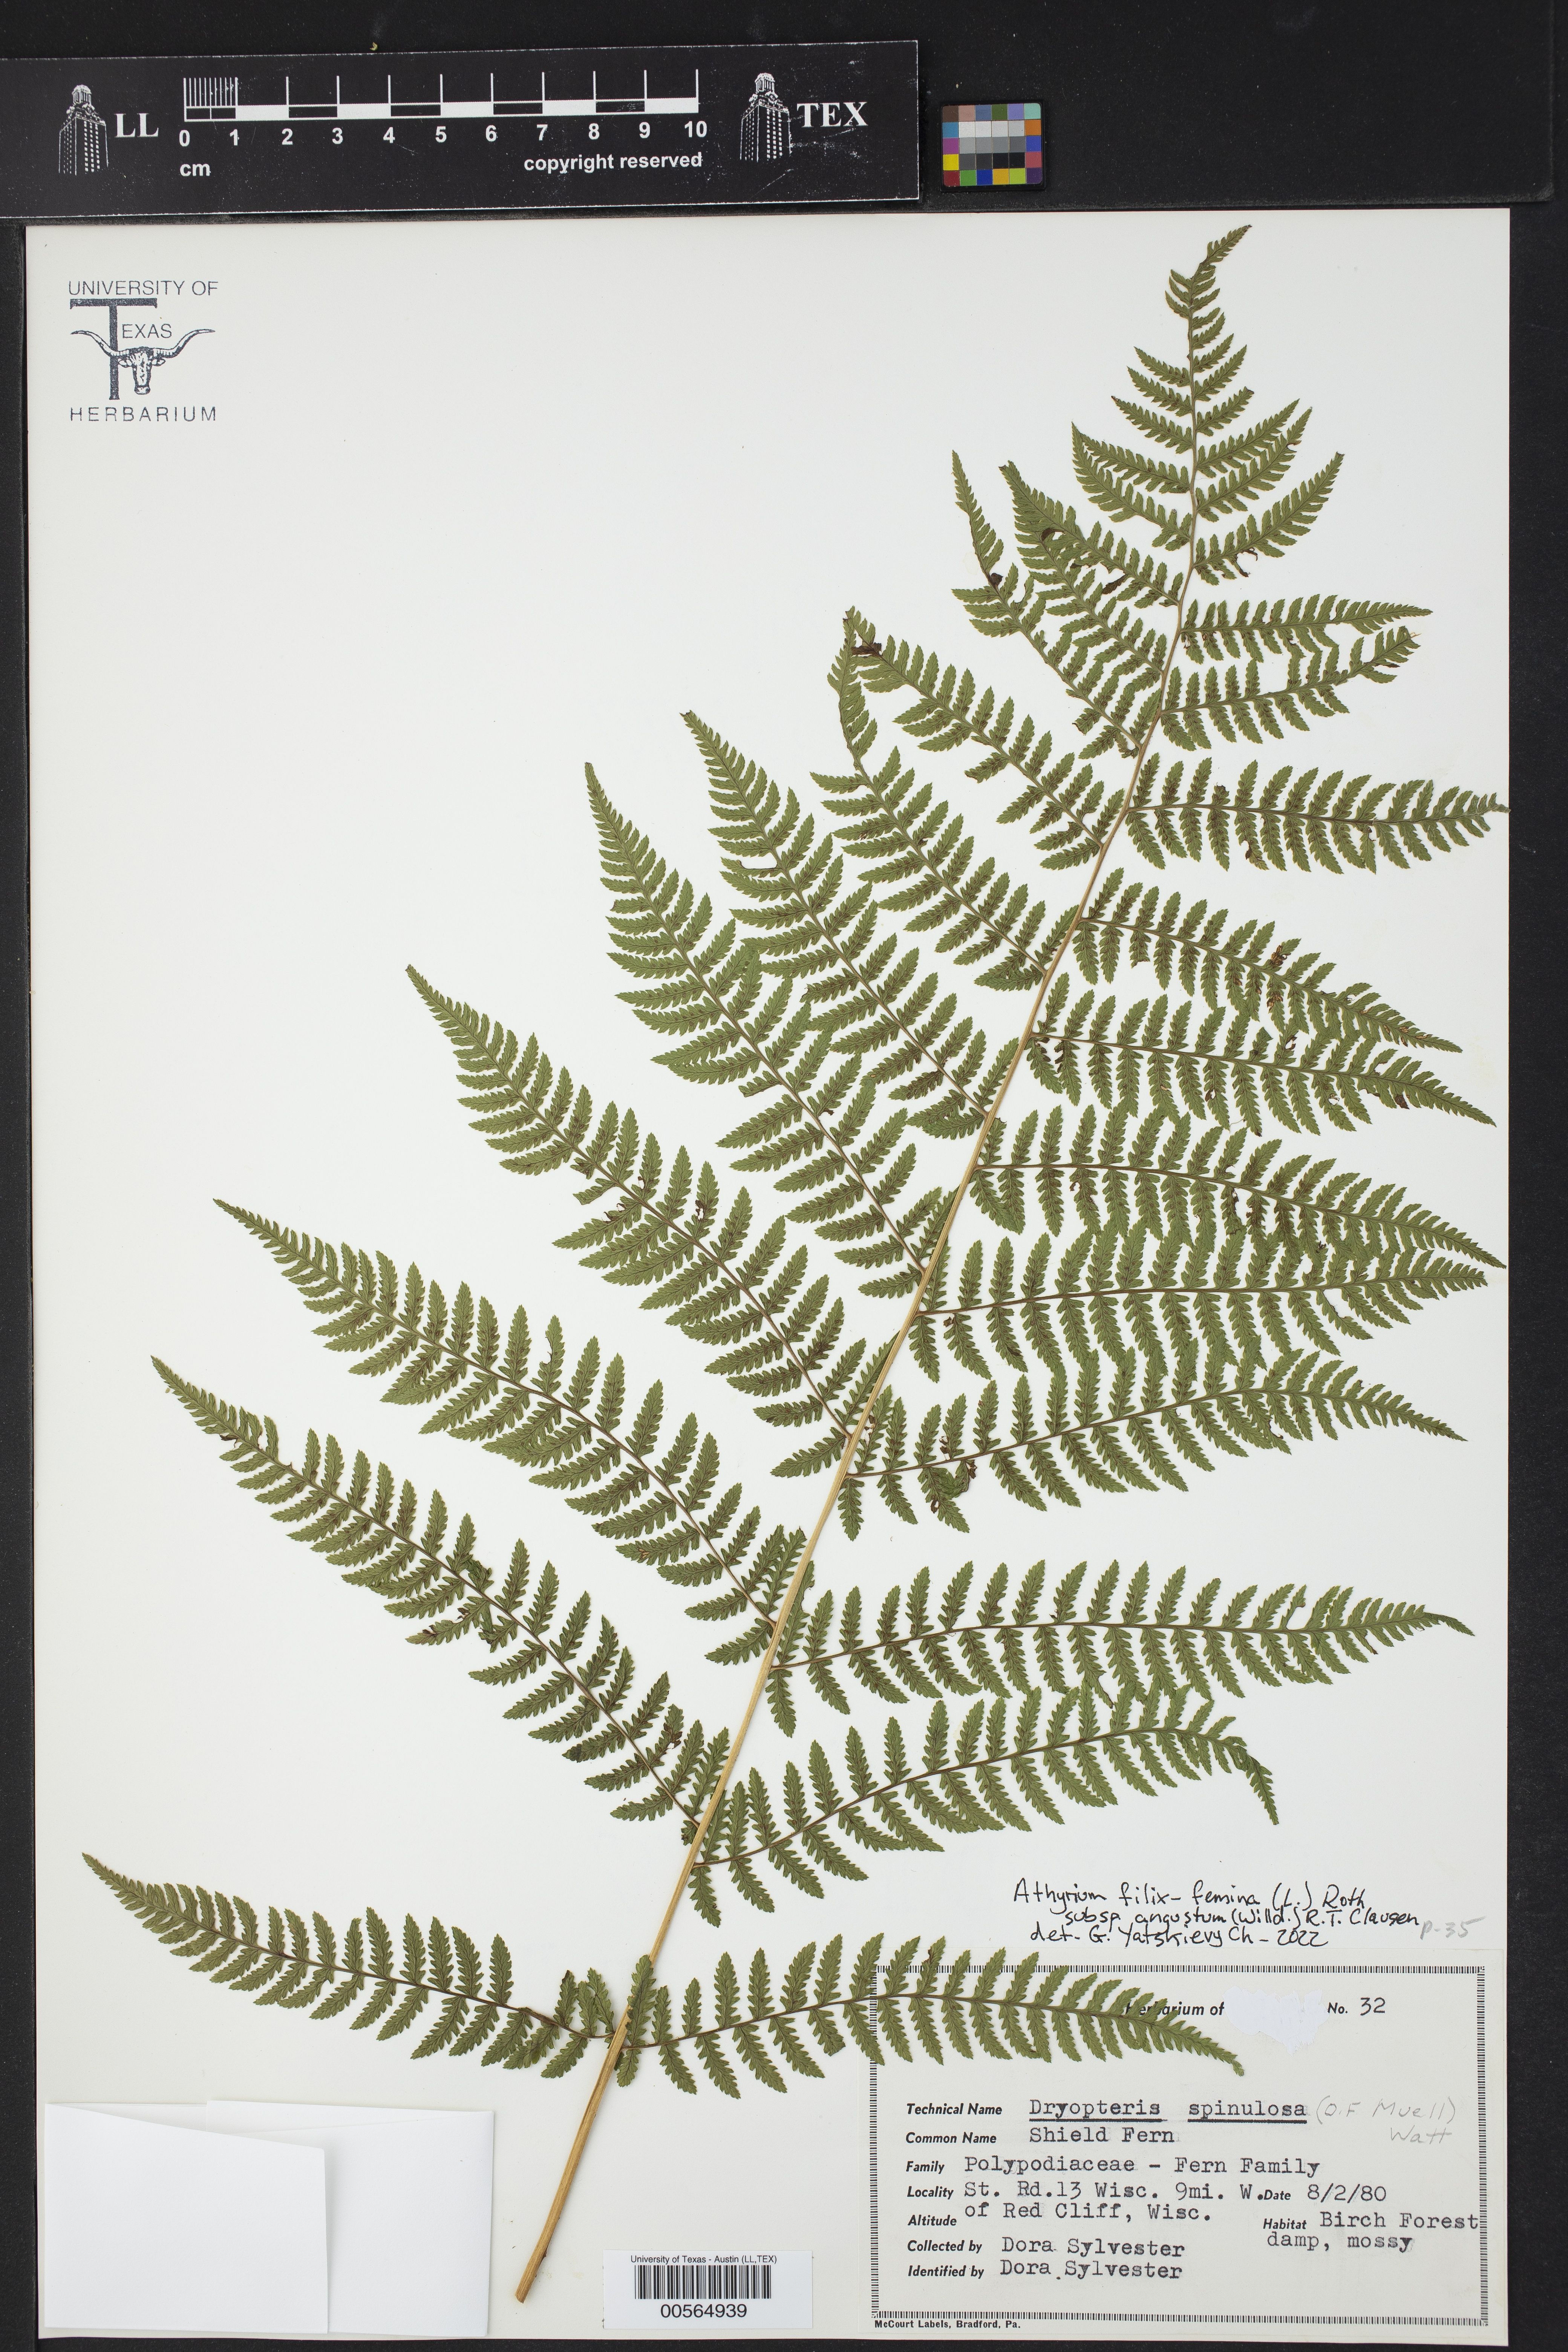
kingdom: Plantae
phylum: Tracheophyta
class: Polypodiopsida
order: Polypodiales
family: Dryopteridaceae
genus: Dryopteris
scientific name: Dryopteris carthusiana
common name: Narrow buckler-fern
